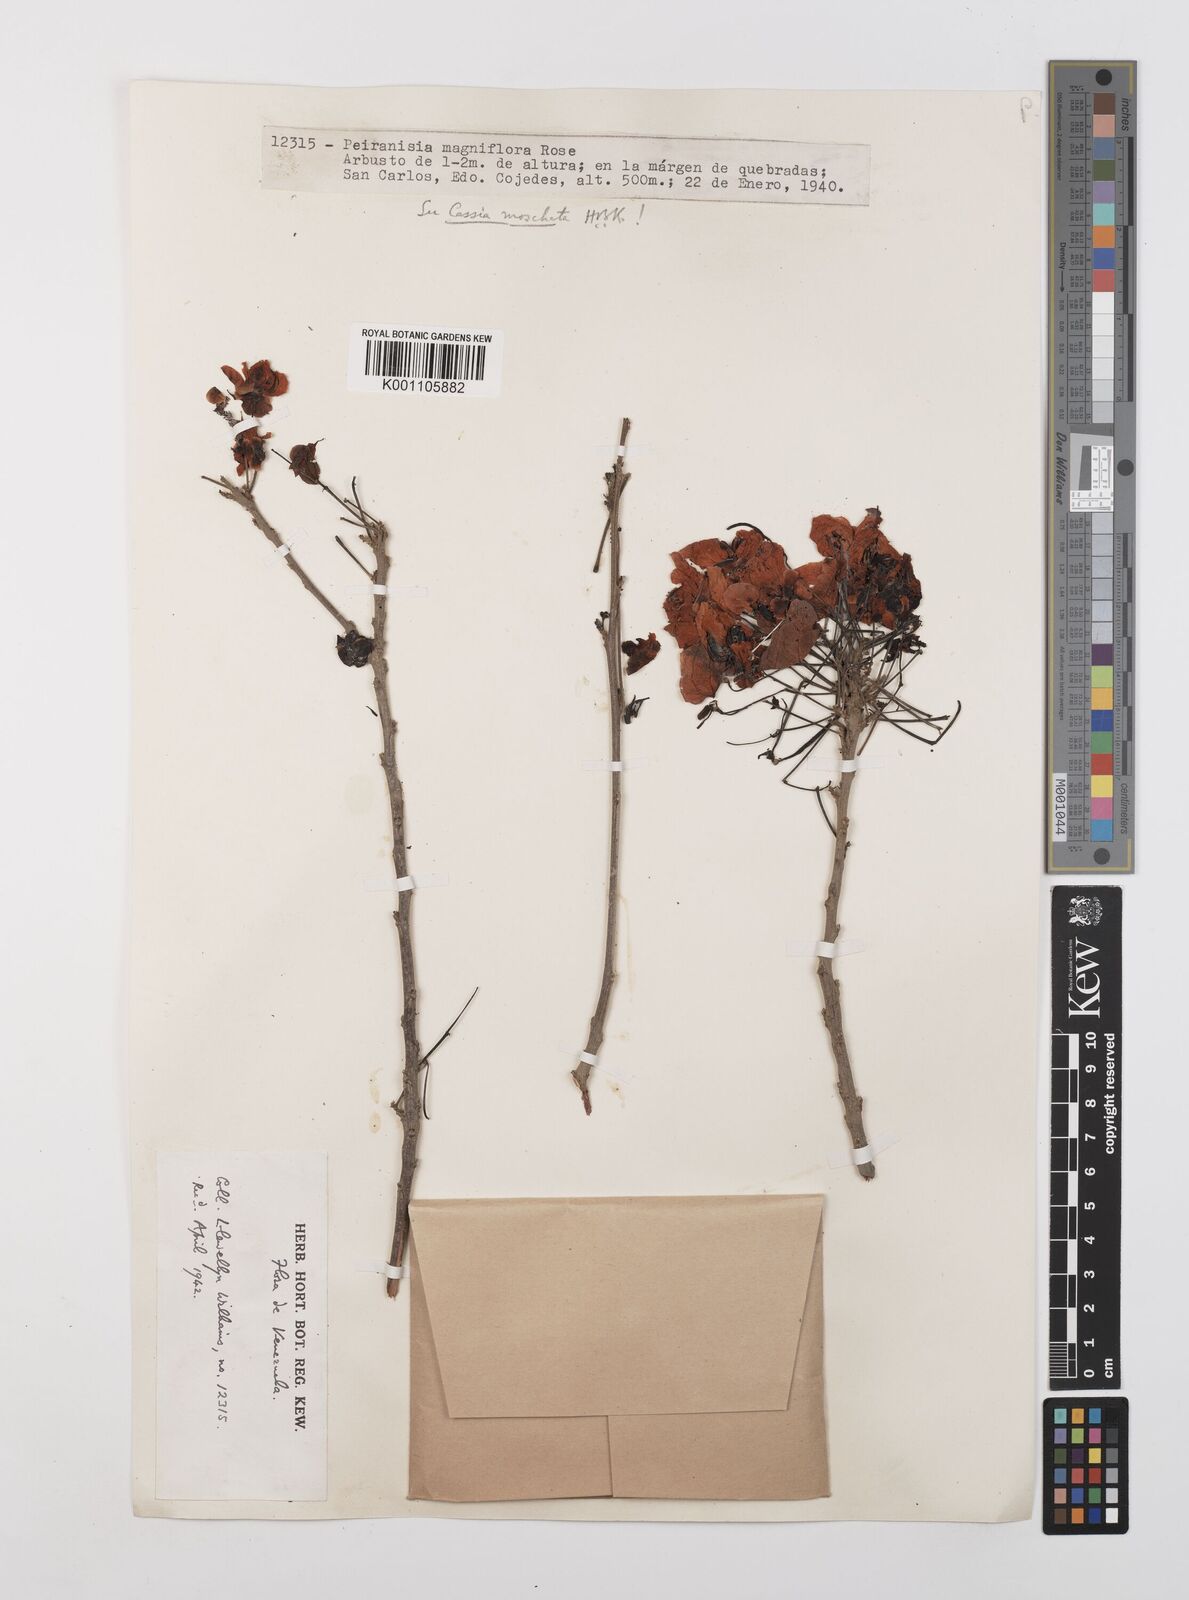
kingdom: Plantae
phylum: Tracheophyta
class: Magnoliopsida
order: Fabales
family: Fabaceae
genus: Cassia
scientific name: Cassia moschata
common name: Bronze shower tree
